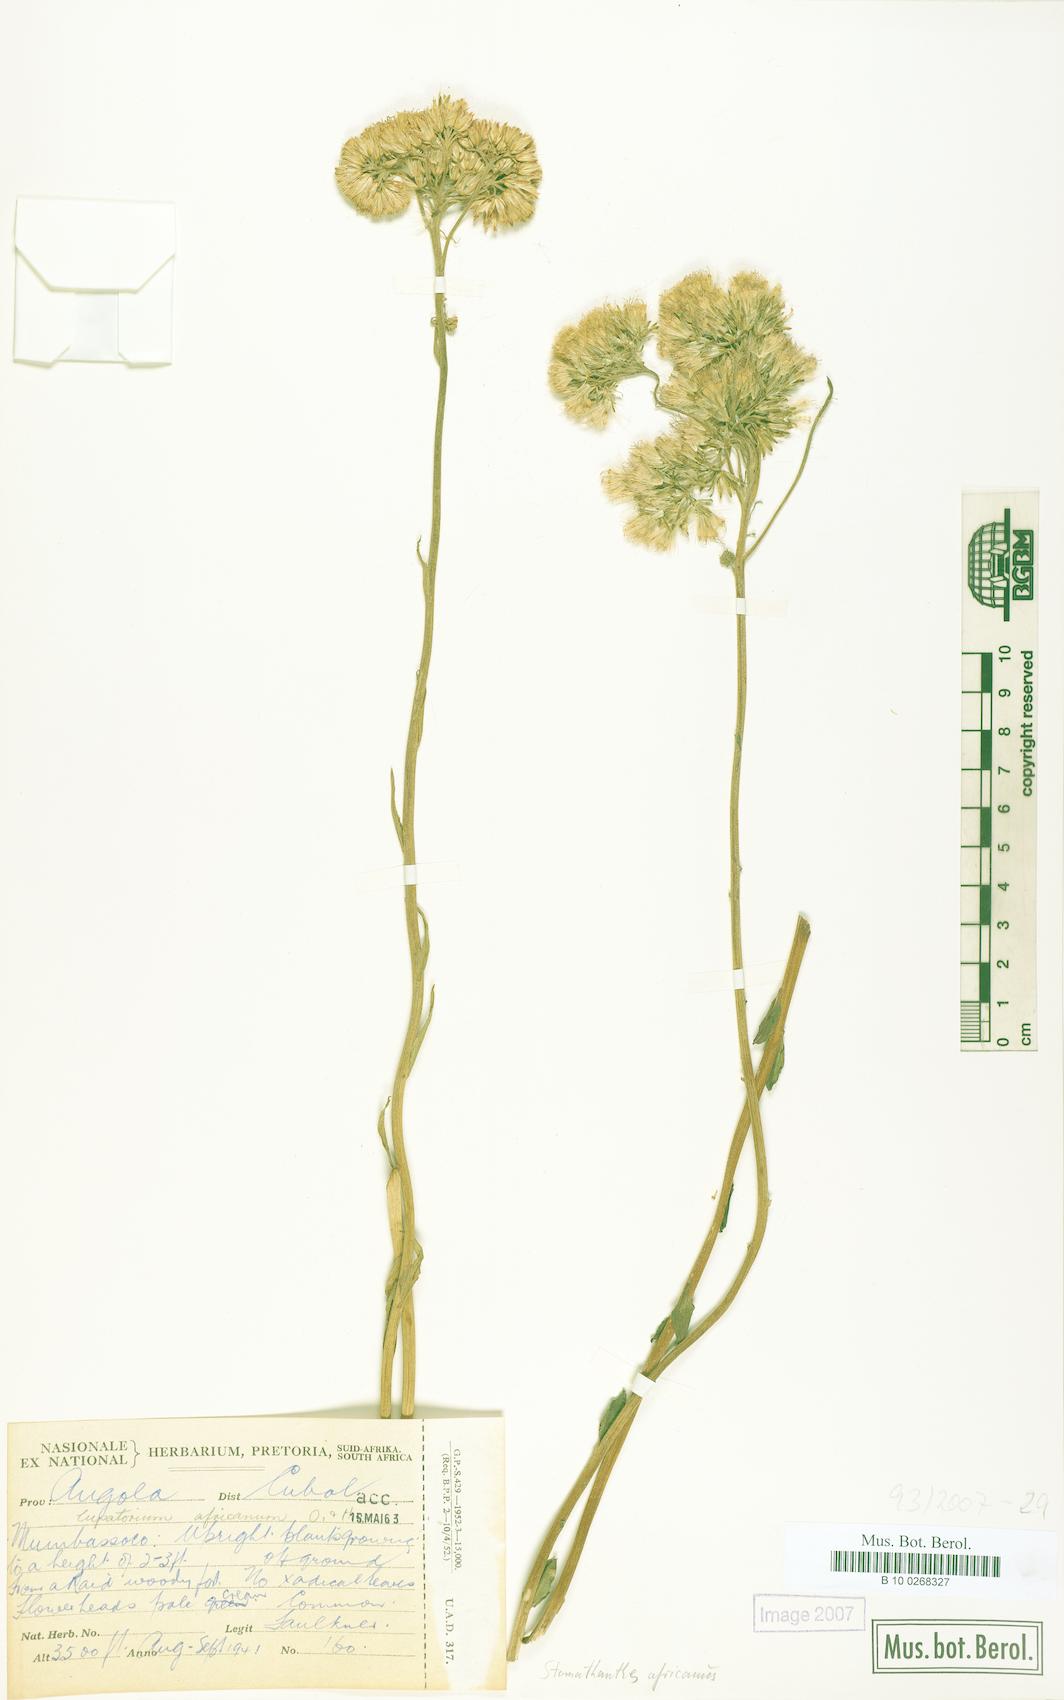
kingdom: Plantae
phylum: Tracheophyta
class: Magnoliopsida
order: Asterales
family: Asteraceae
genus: Stomatanthes
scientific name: Stomatanthes africanus
